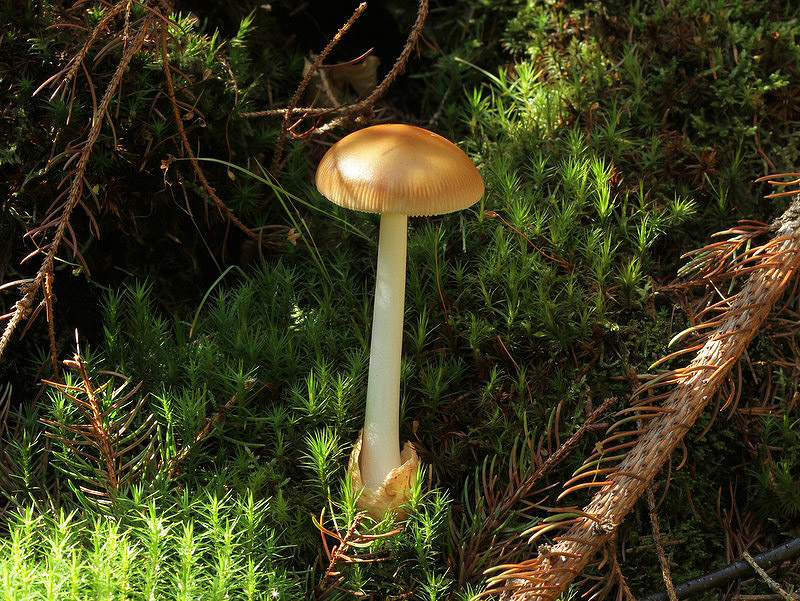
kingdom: Fungi
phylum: Basidiomycota
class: Agaricomycetes
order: Agaricales
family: Amanitaceae
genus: Amanita
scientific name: Amanita fulva
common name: brun kam-fluesvamp
